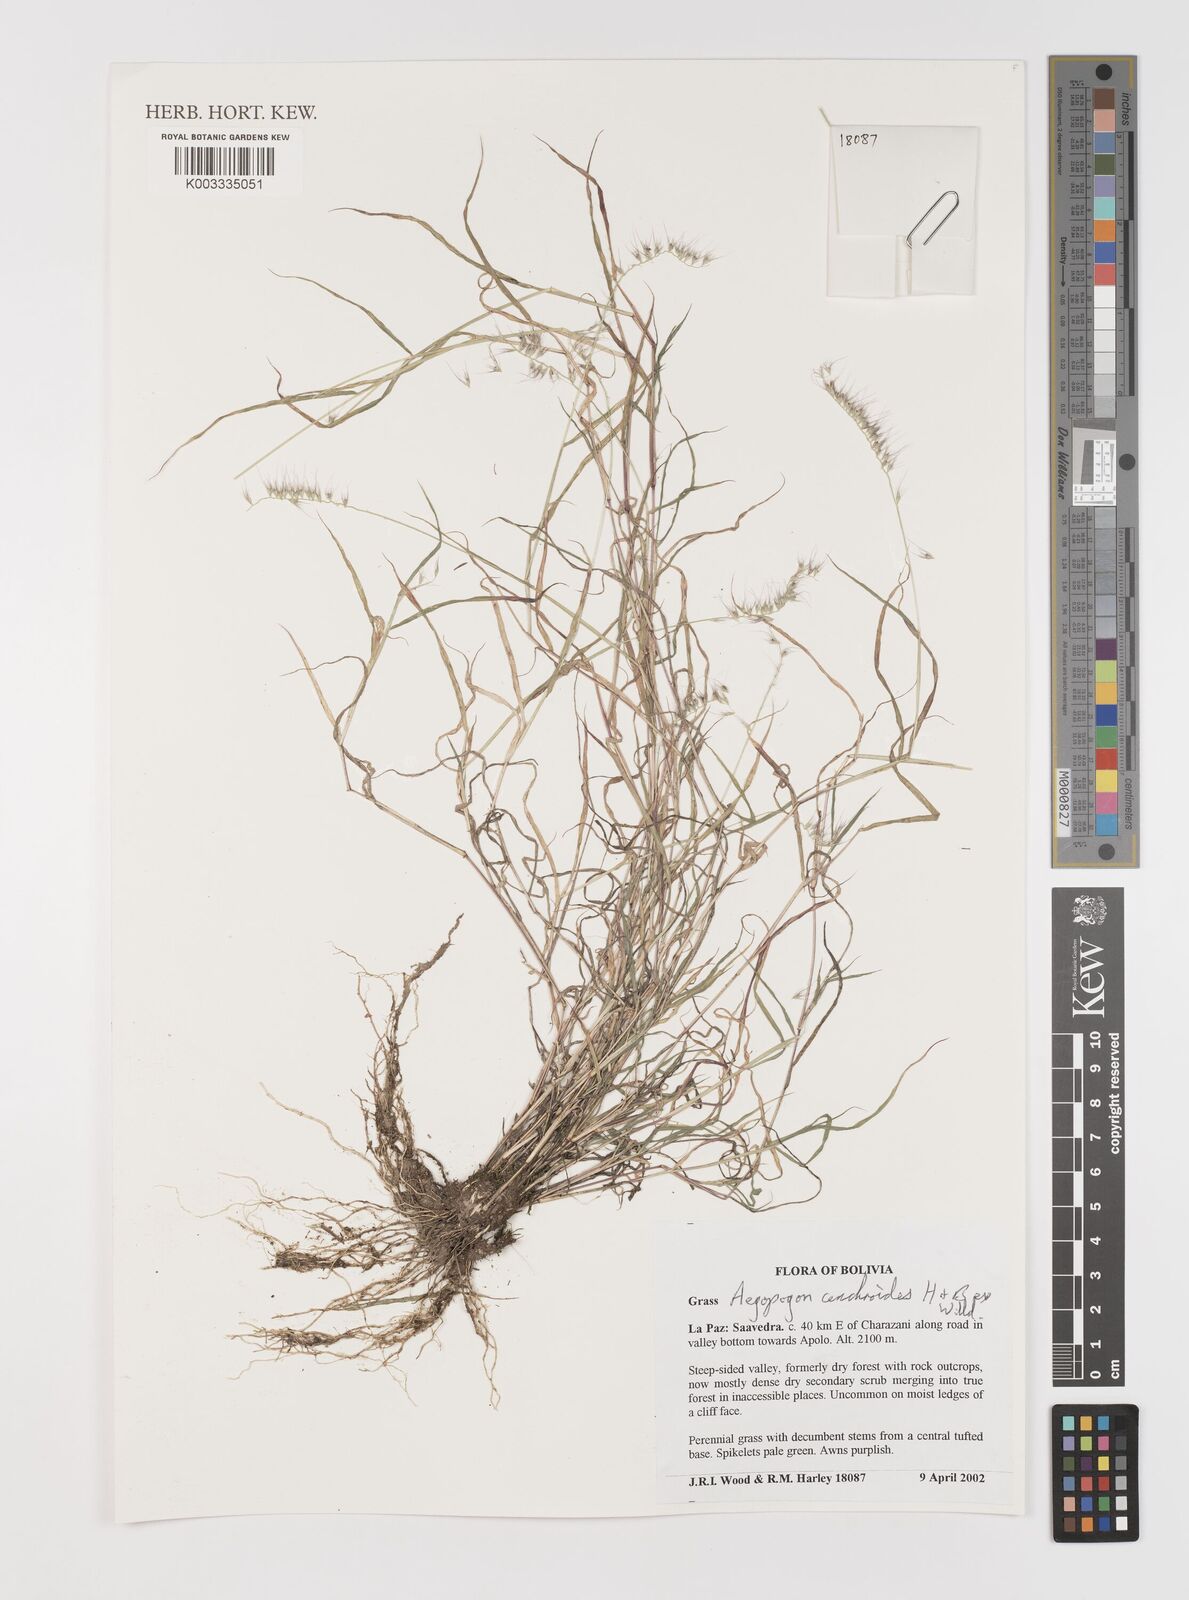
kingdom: Plantae
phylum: Tracheophyta
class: Liliopsida
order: Poales
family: Poaceae
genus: Muhlenbergia
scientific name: Muhlenbergia cenchroides
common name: Relaxgrass
